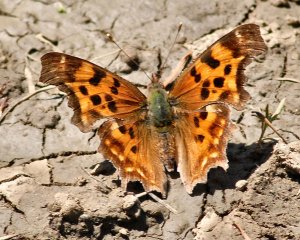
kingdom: Animalia
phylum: Arthropoda
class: Insecta
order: Lepidoptera
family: Nymphalidae
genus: Polygonia
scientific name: Polygonia satyrus
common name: Satyr Comma
